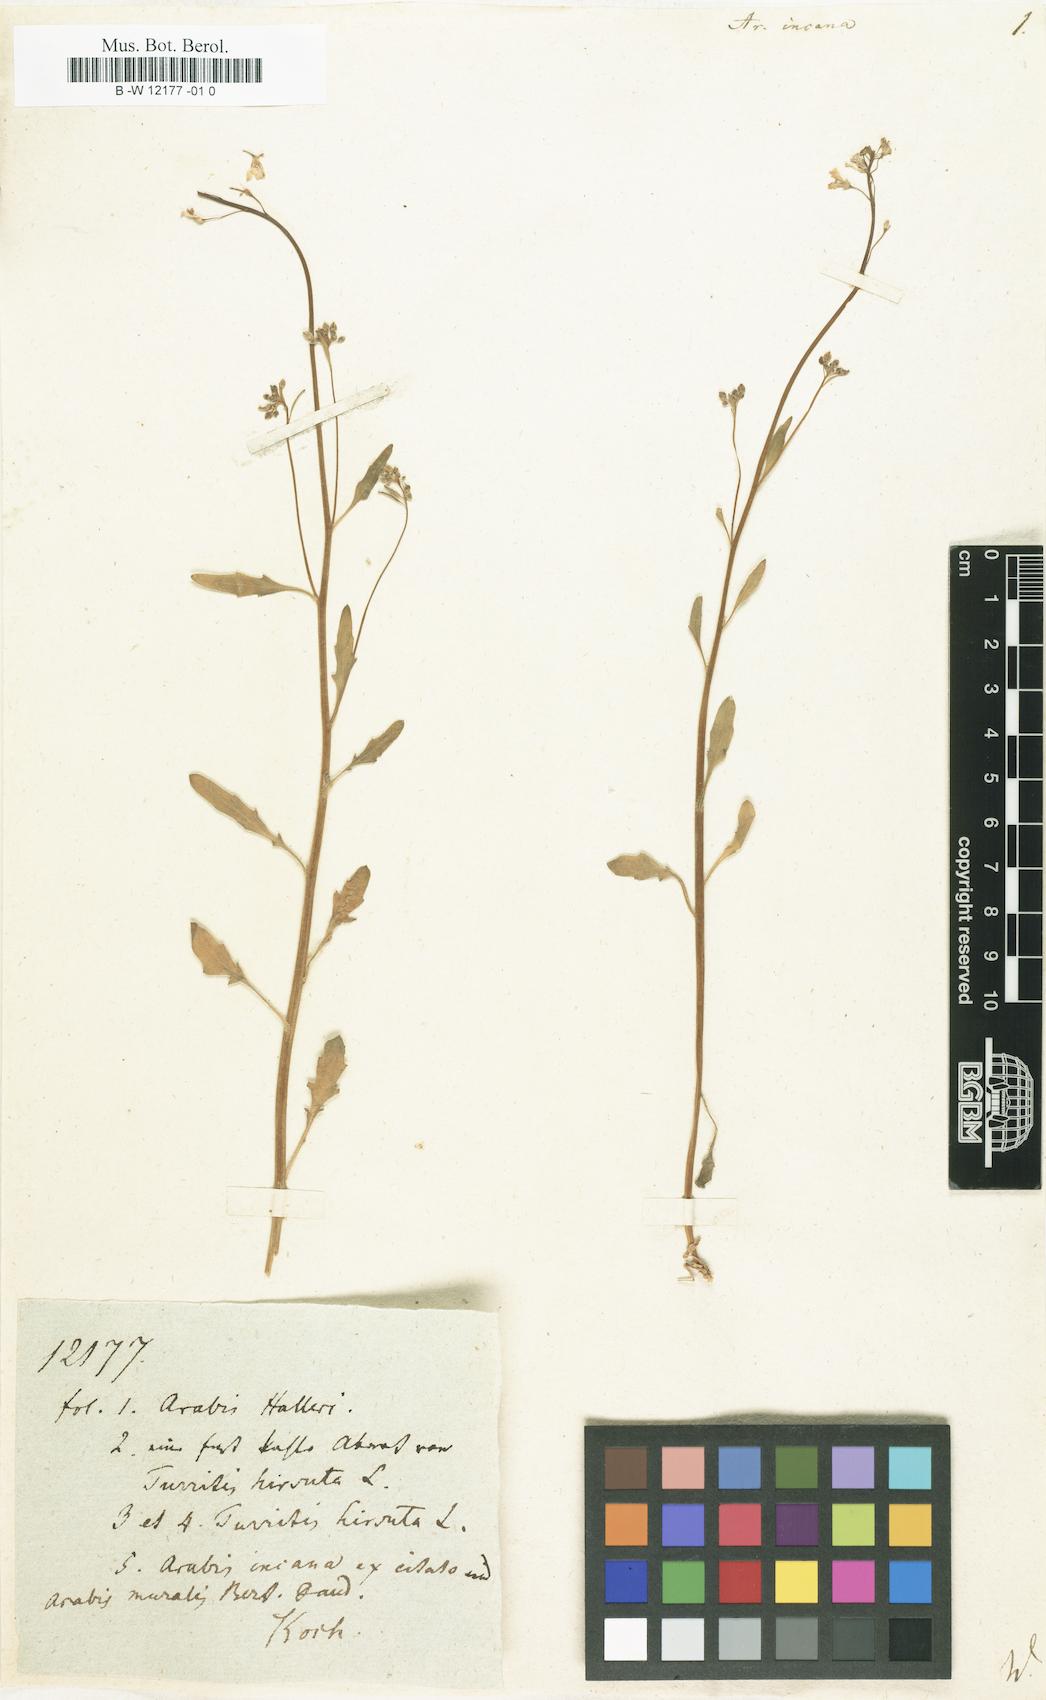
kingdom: Plantae
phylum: Tracheophyta
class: Magnoliopsida
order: Brassicales
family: Brassicaceae
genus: Arabis
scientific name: Arabis incana
